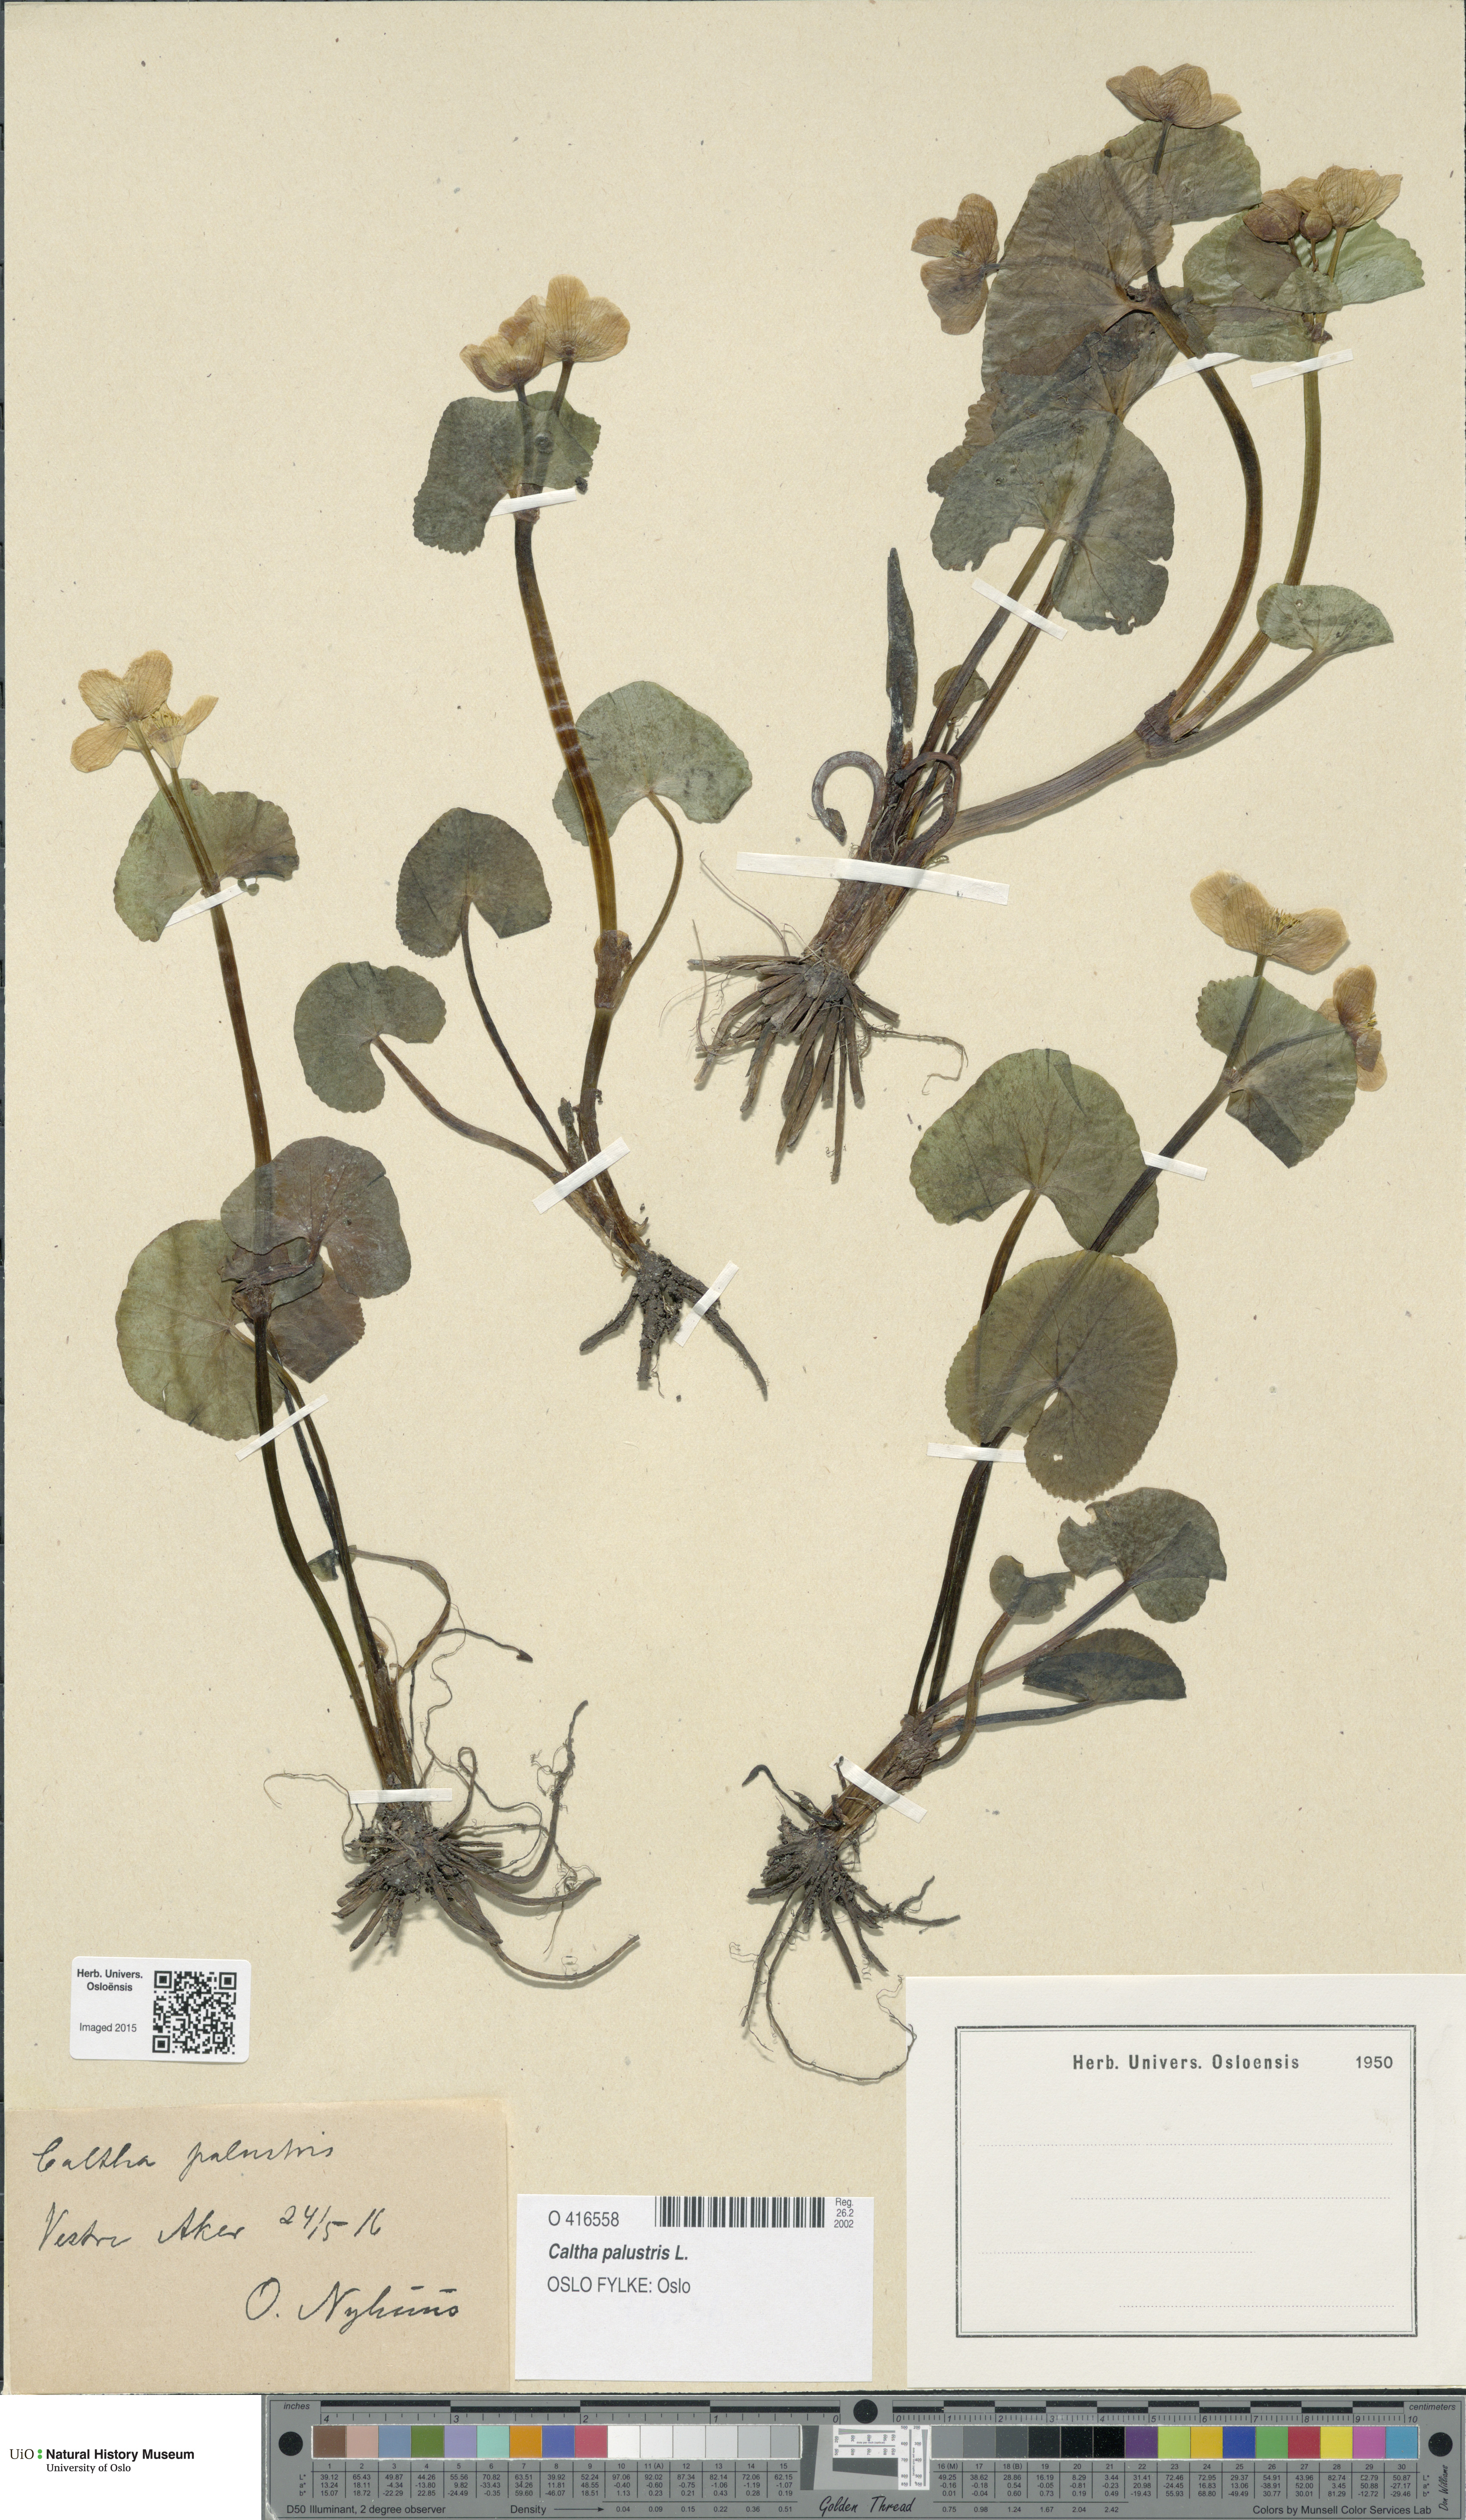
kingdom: Plantae
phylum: Tracheophyta
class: Magnoliopsida
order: Ranunculales
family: Ranunculaceae
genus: Caltha
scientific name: Caltha palustris
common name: Marsh marigold
